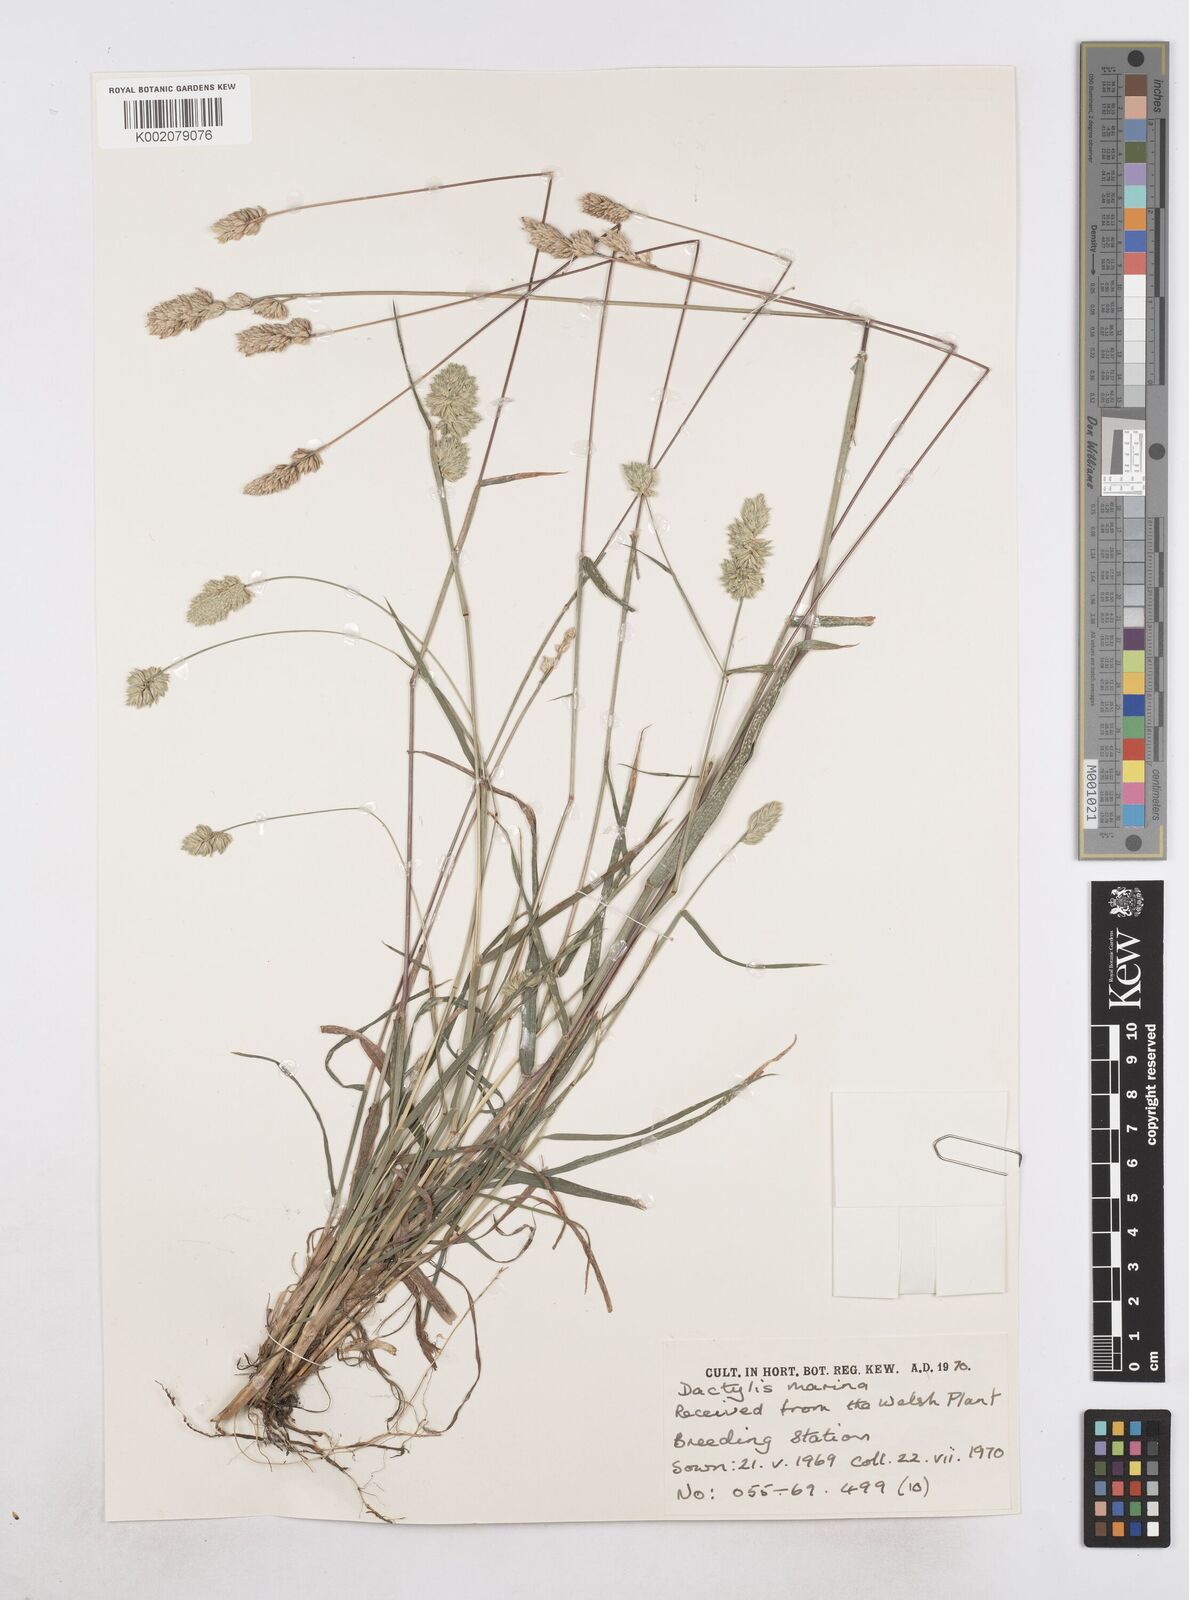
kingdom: Plantae
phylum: Tracheophyta
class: Liliopsida
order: Poales
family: Poaceae
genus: Dactylis
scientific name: Dactylis glomerata
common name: Orchardgrass
